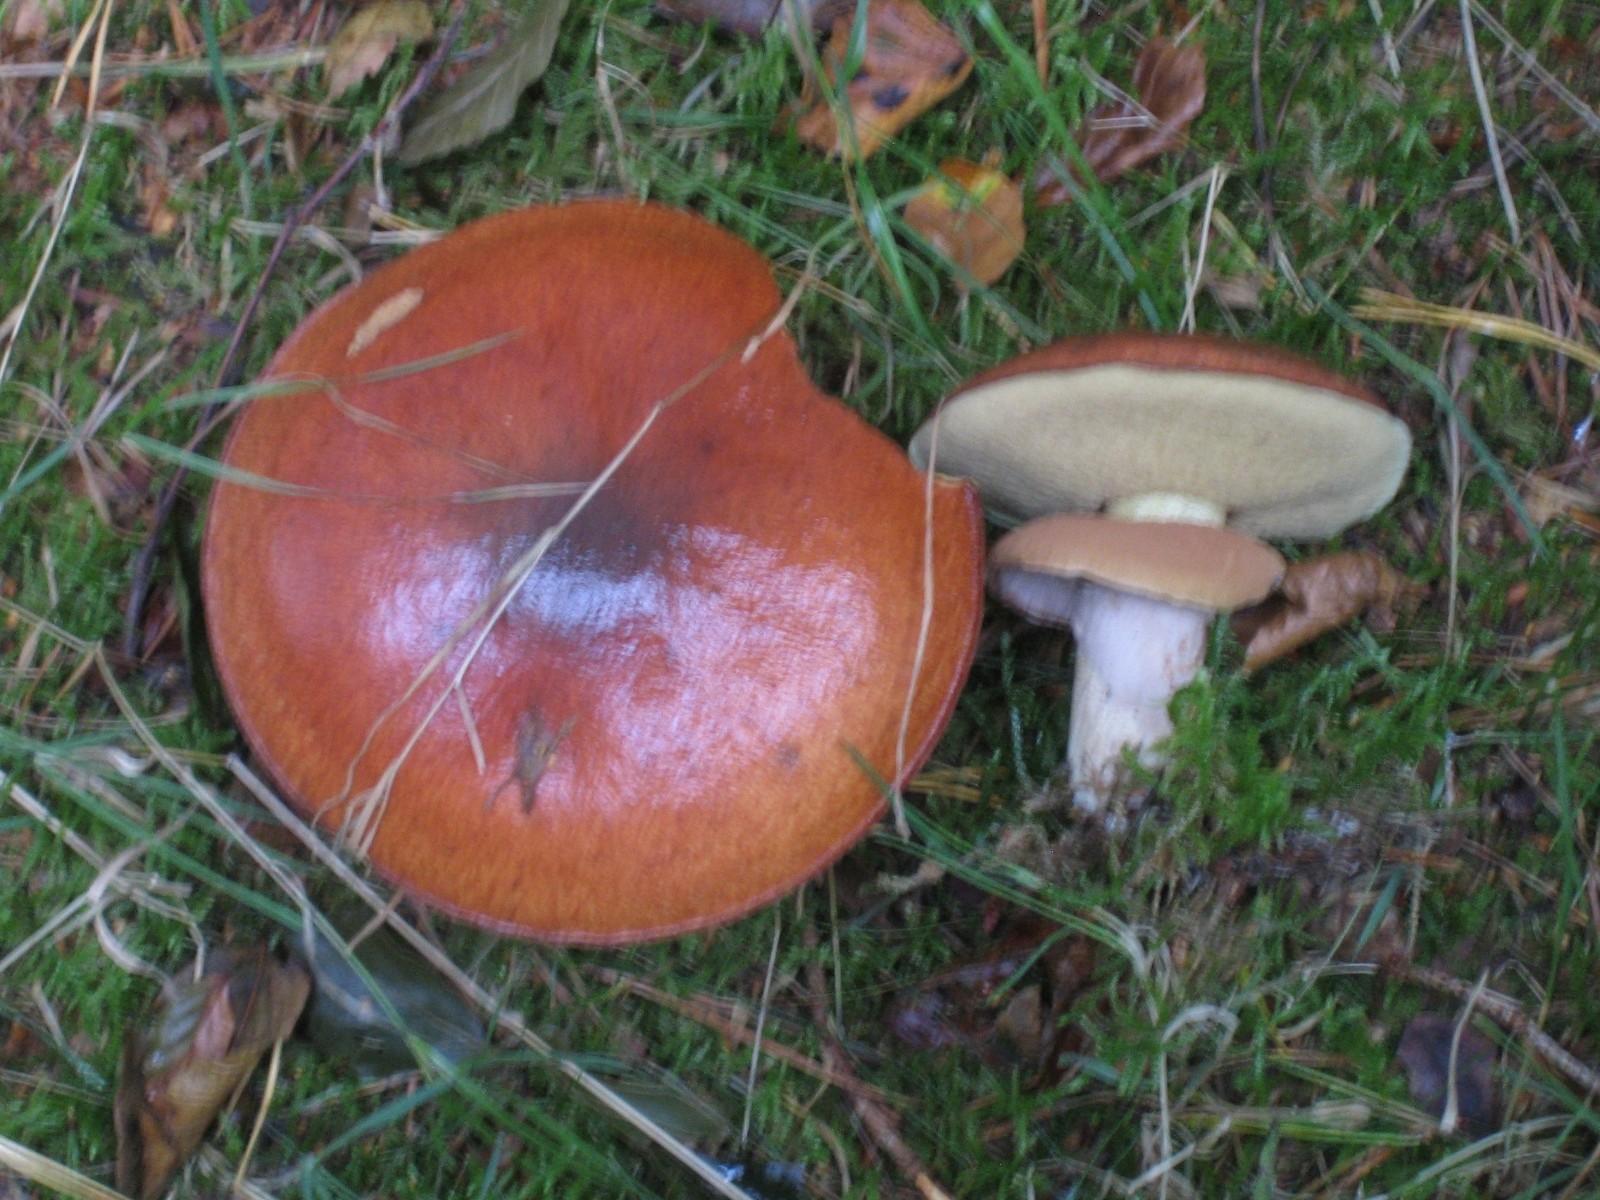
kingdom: Fungi
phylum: Basidiomycota
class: Agaricomycetes
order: Boletales
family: Suillaceae
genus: Suillus
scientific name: Suillus luteus
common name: brungul slimrørhat
